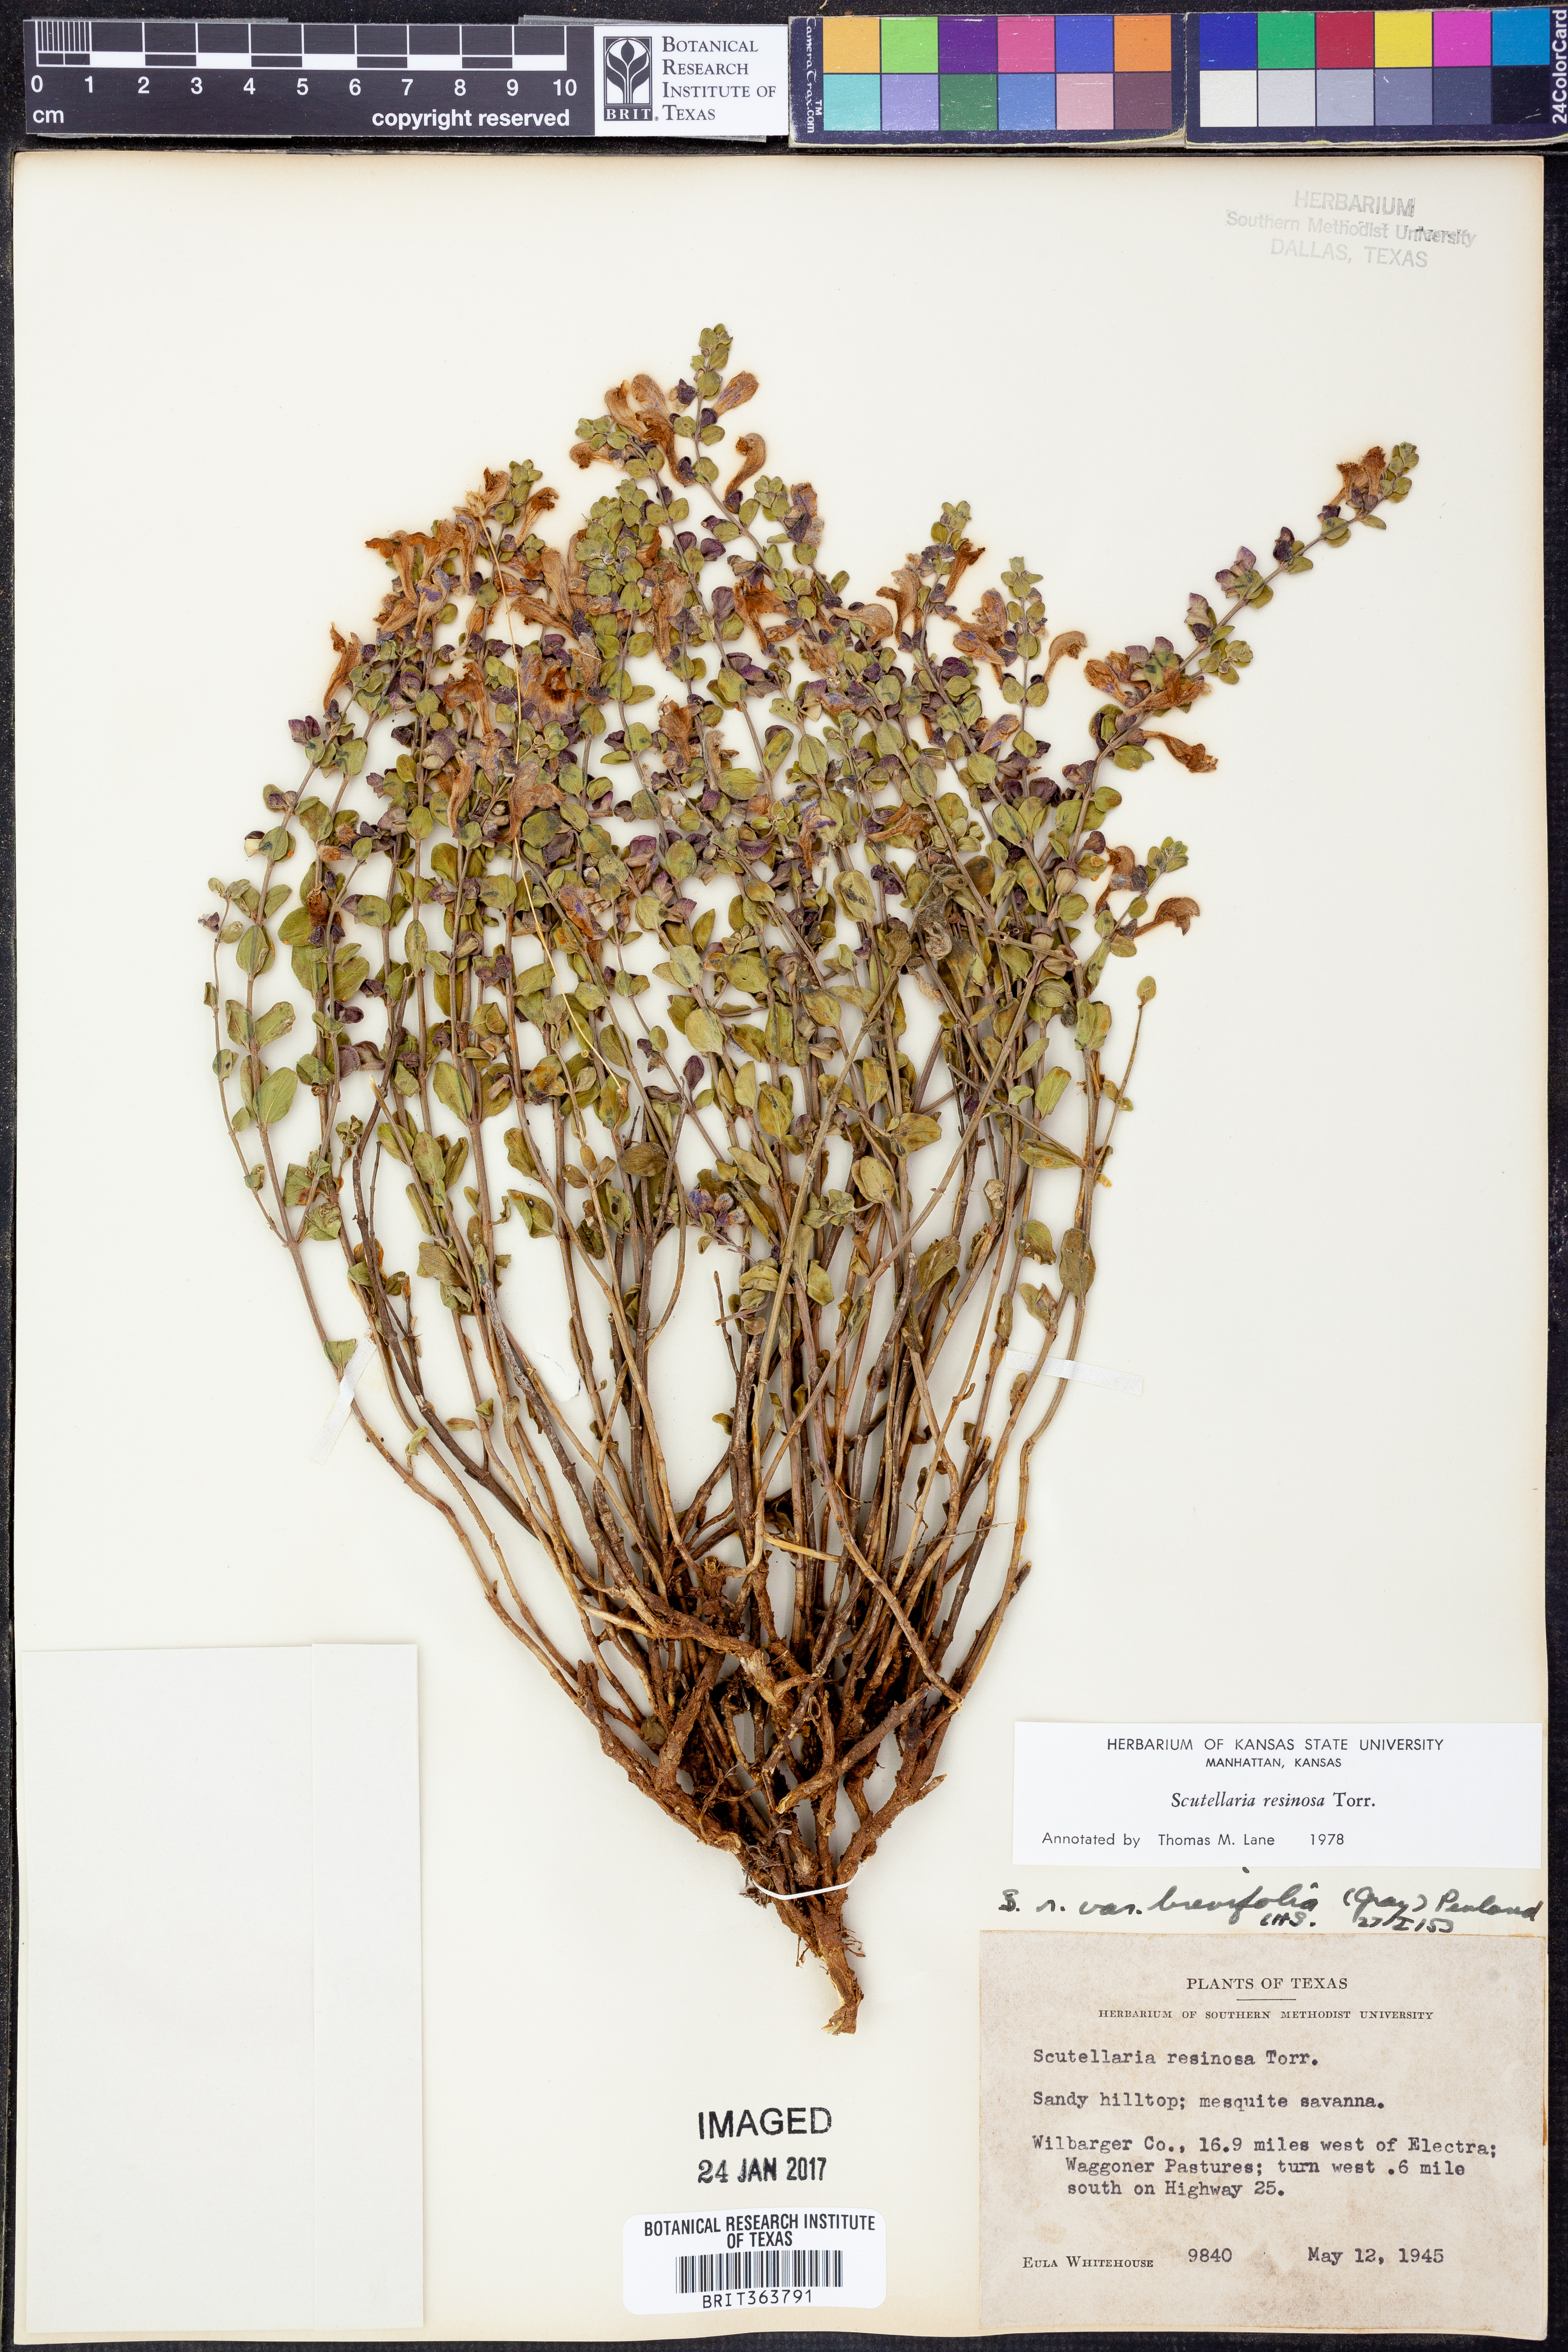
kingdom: Plantae
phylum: Tracheophyta
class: Magnoliopsida
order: Lamiales
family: Lamiaceae
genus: Scutellaria
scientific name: Scutellaria resinosa
